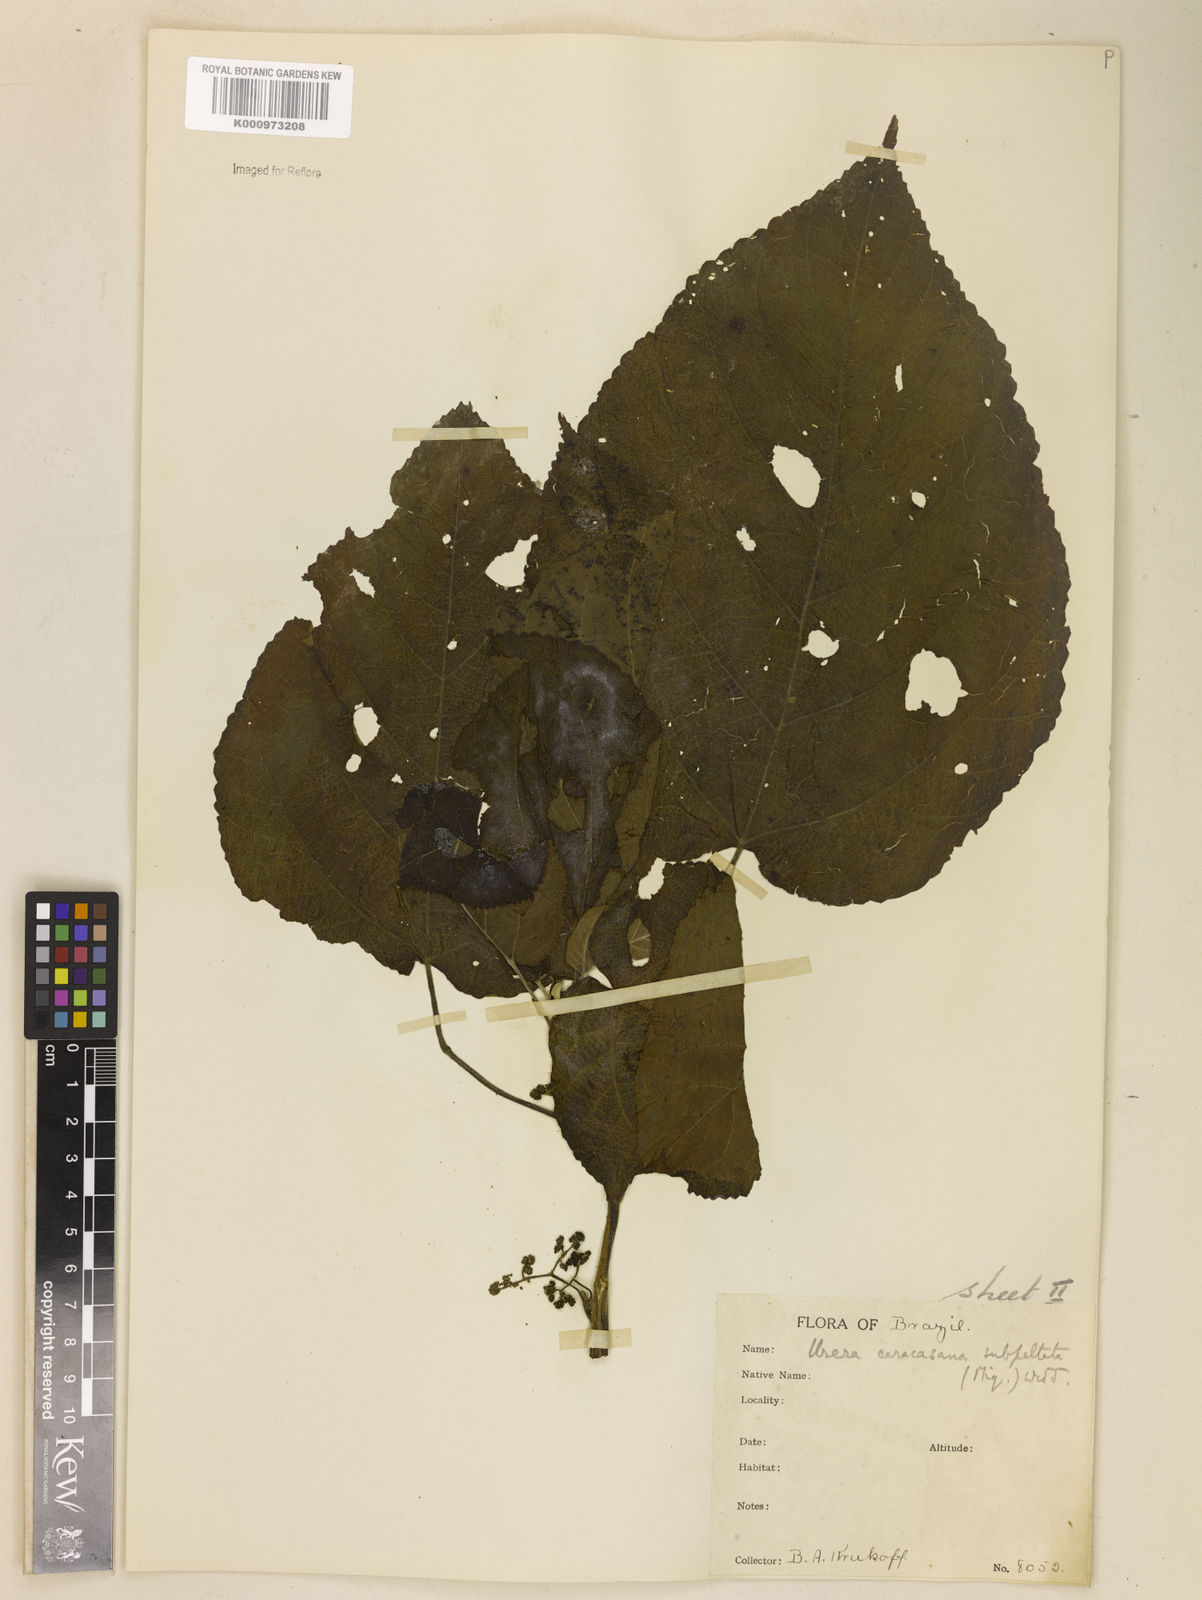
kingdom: Plantae
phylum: Tracheophyta
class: Magnoliopsida
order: Rosales
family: Urticaceae
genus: Urera
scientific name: Urera caracasana
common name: Flameberry
